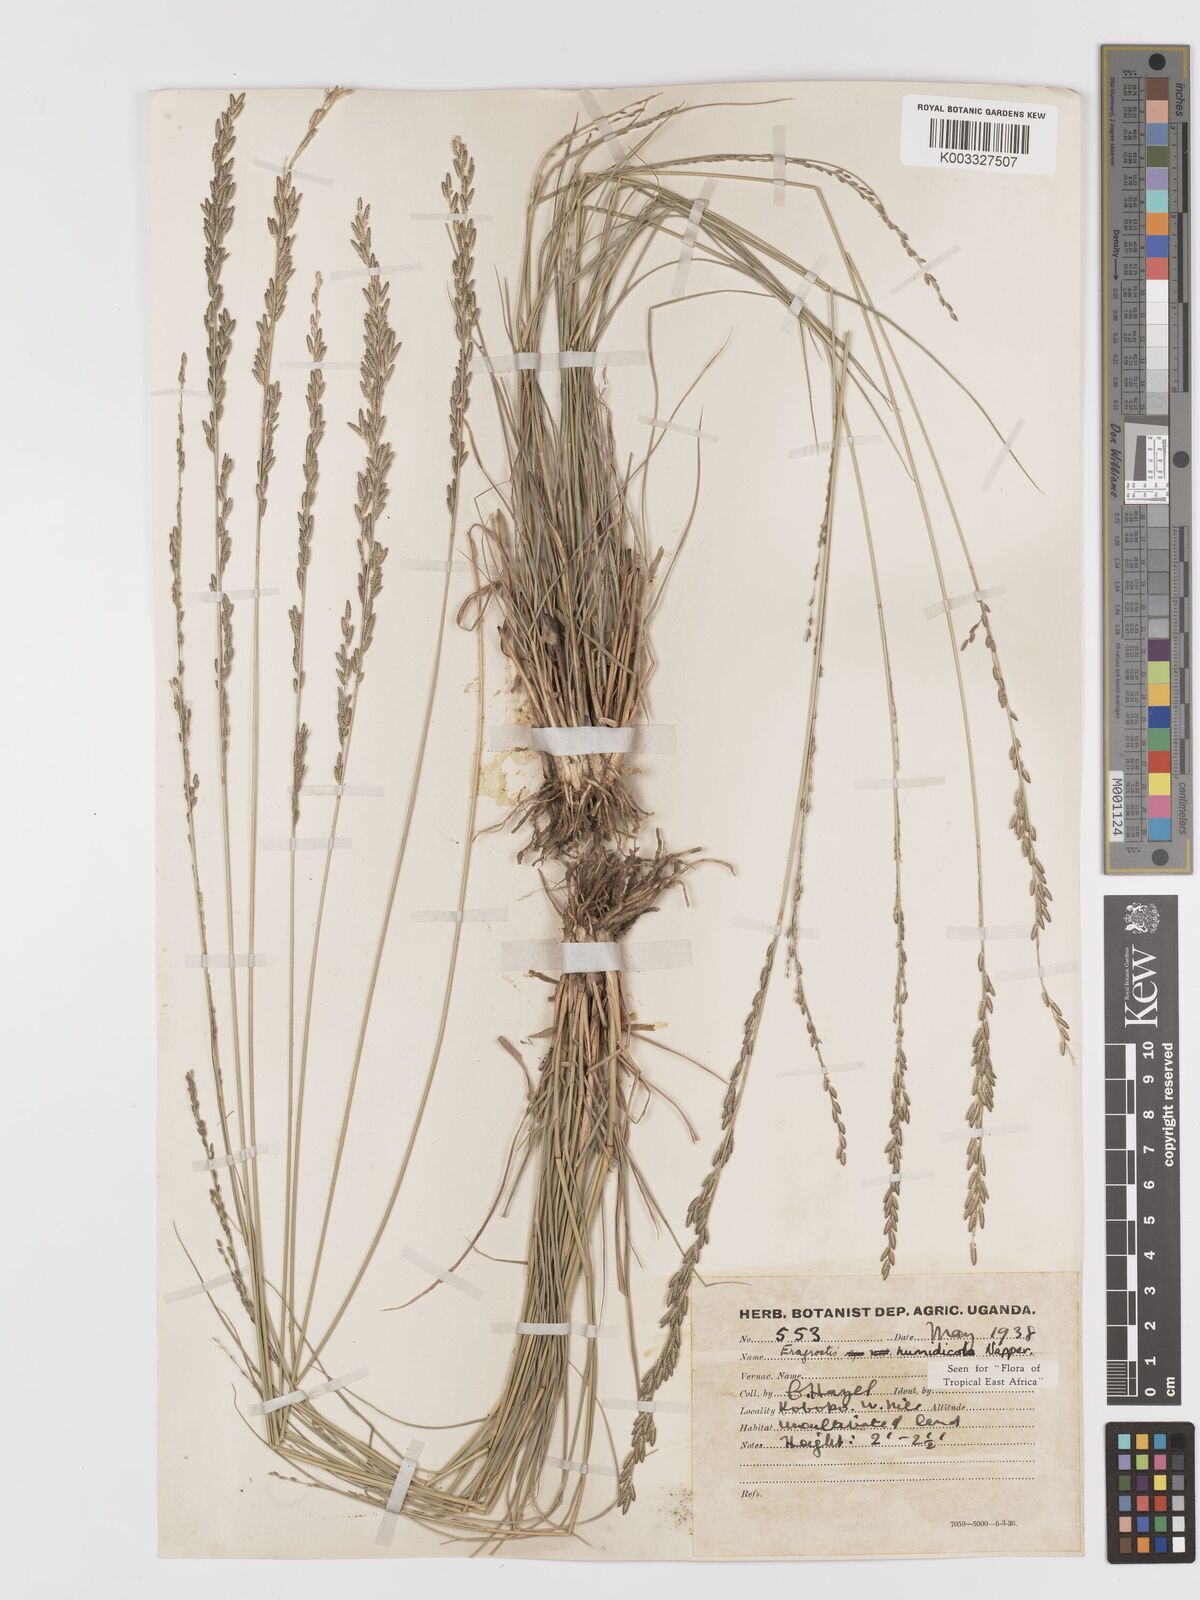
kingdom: Plantae
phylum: Tracheophyta
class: Liliopsida
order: Poales
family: Poaceae
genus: Eragrostis
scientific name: Eragrostis humidicola
